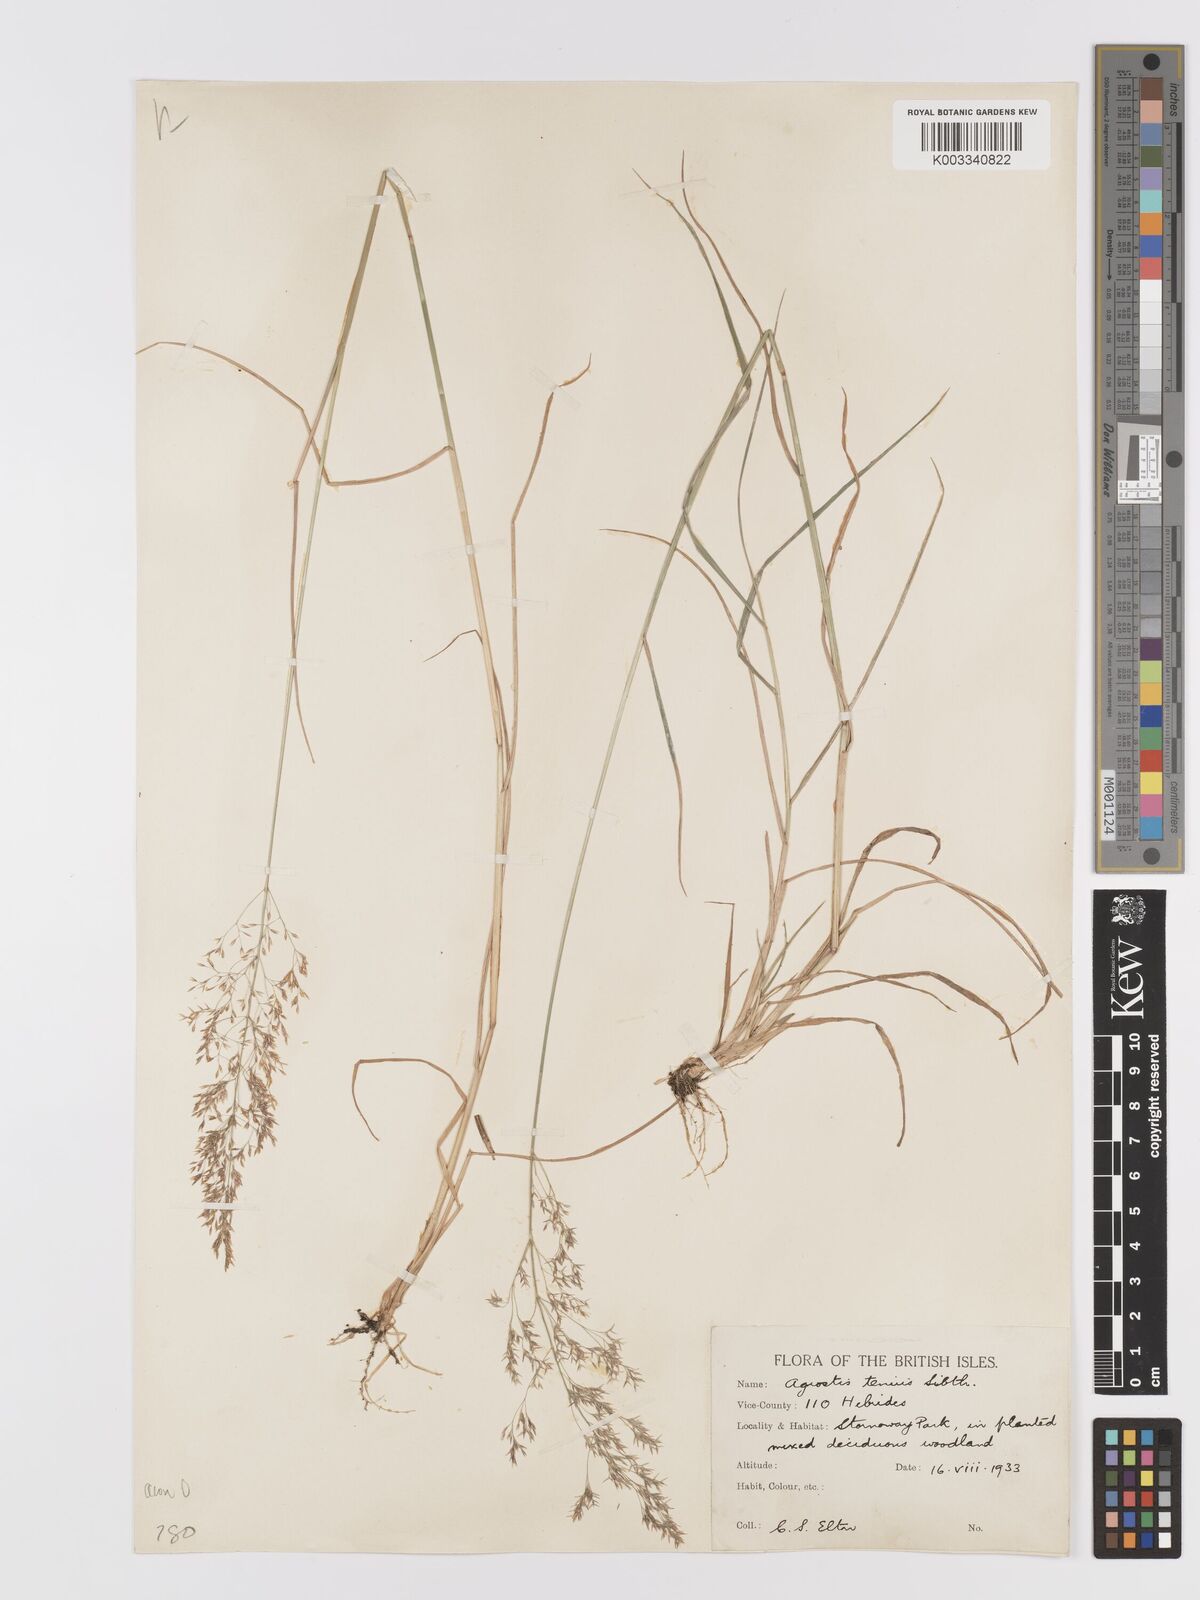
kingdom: Plantae
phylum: Tracheophyta
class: Liliopsida
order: Poales
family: Poaceae
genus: Agrostis
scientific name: Agrostis capillaris
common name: Colonial bentgrass
